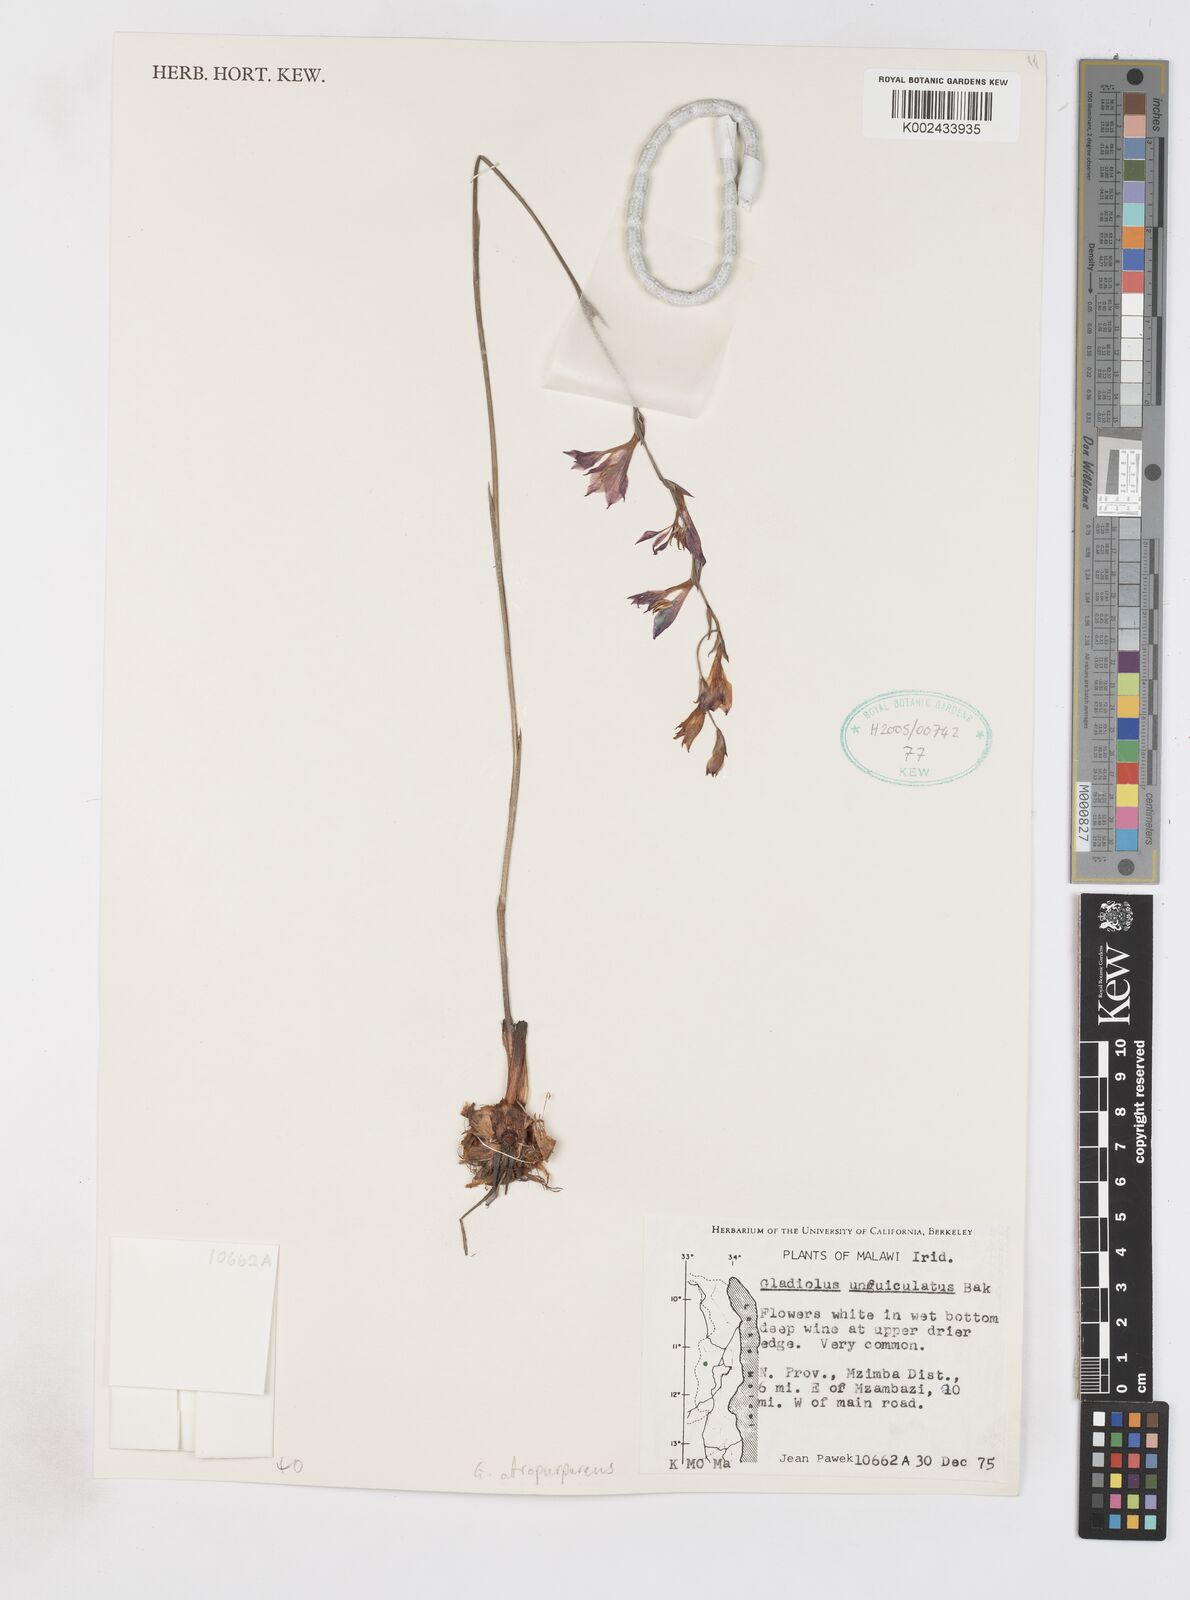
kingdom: Plantae
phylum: Tracheophyta
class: Liliopsida
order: Asparagales
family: Iridaceae
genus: Gladiolus
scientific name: Gladiolus atropurpureus
